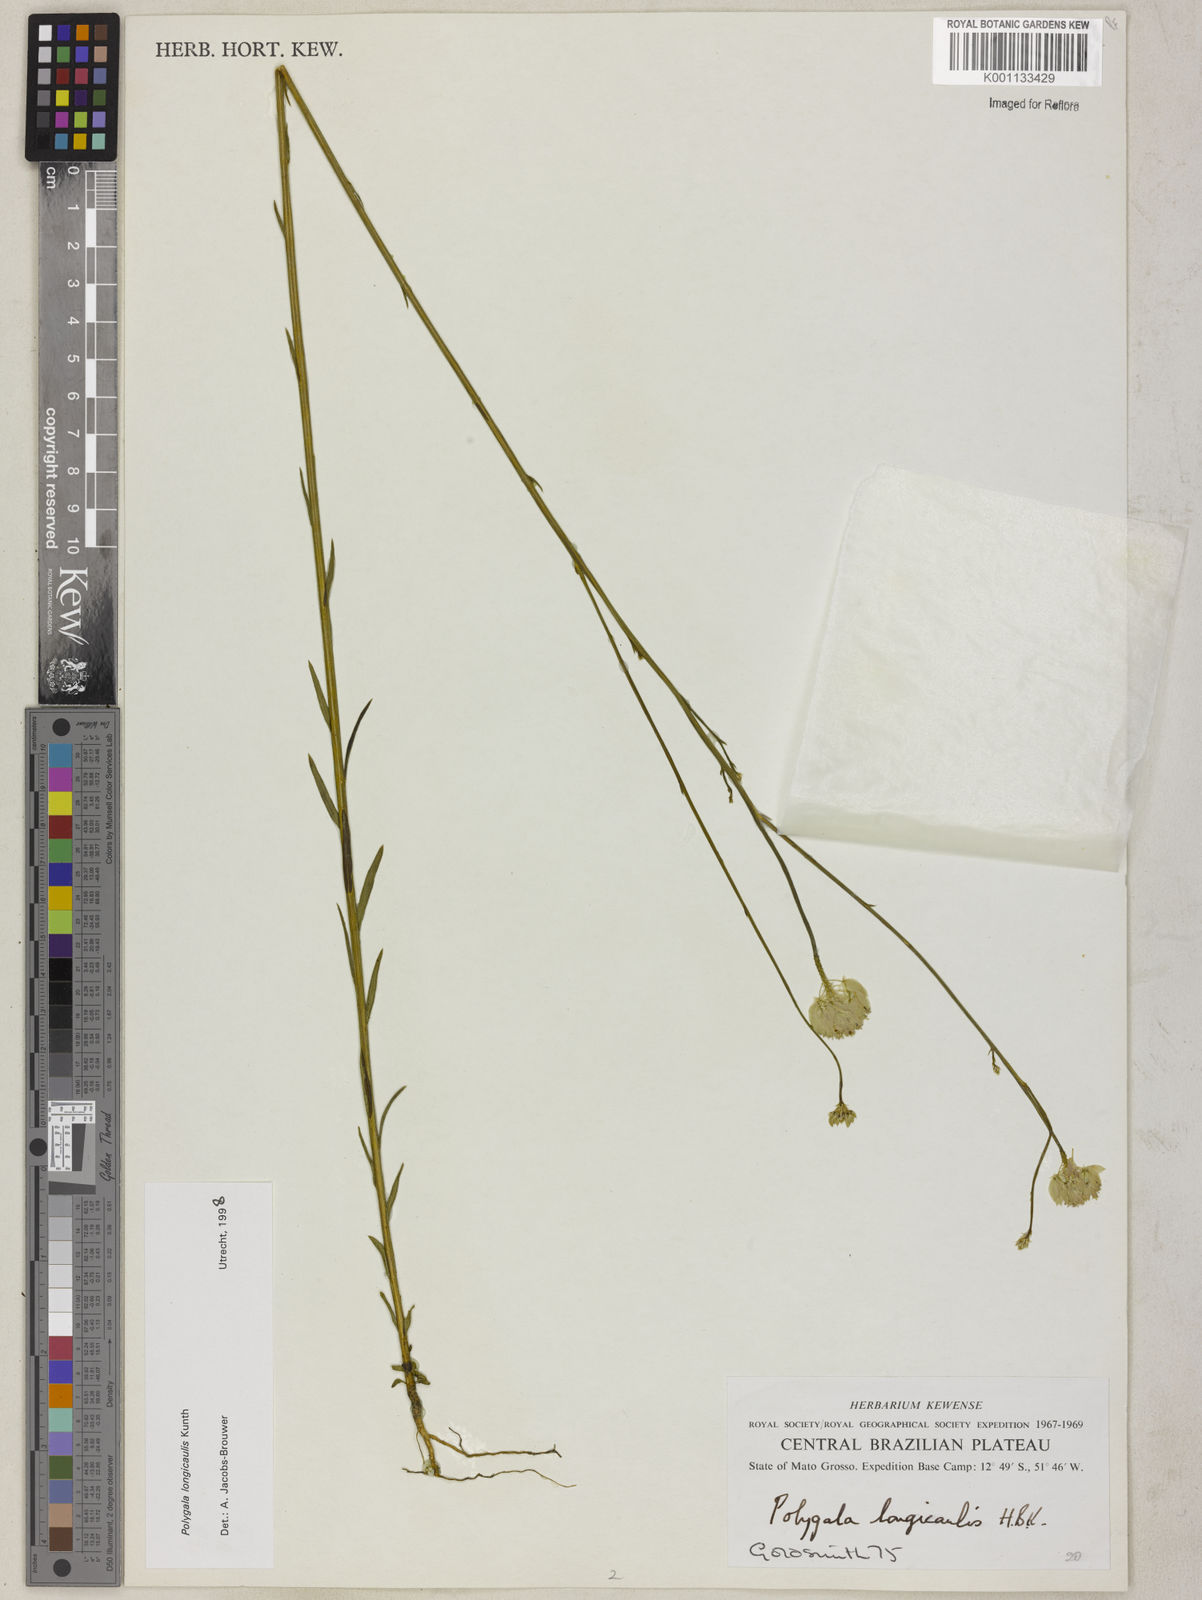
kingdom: Plantae
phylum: Tracheophyta
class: Magnoliopsida
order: Fabales
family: Polygalaceae
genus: Polygala
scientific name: Polygala longicaulis
